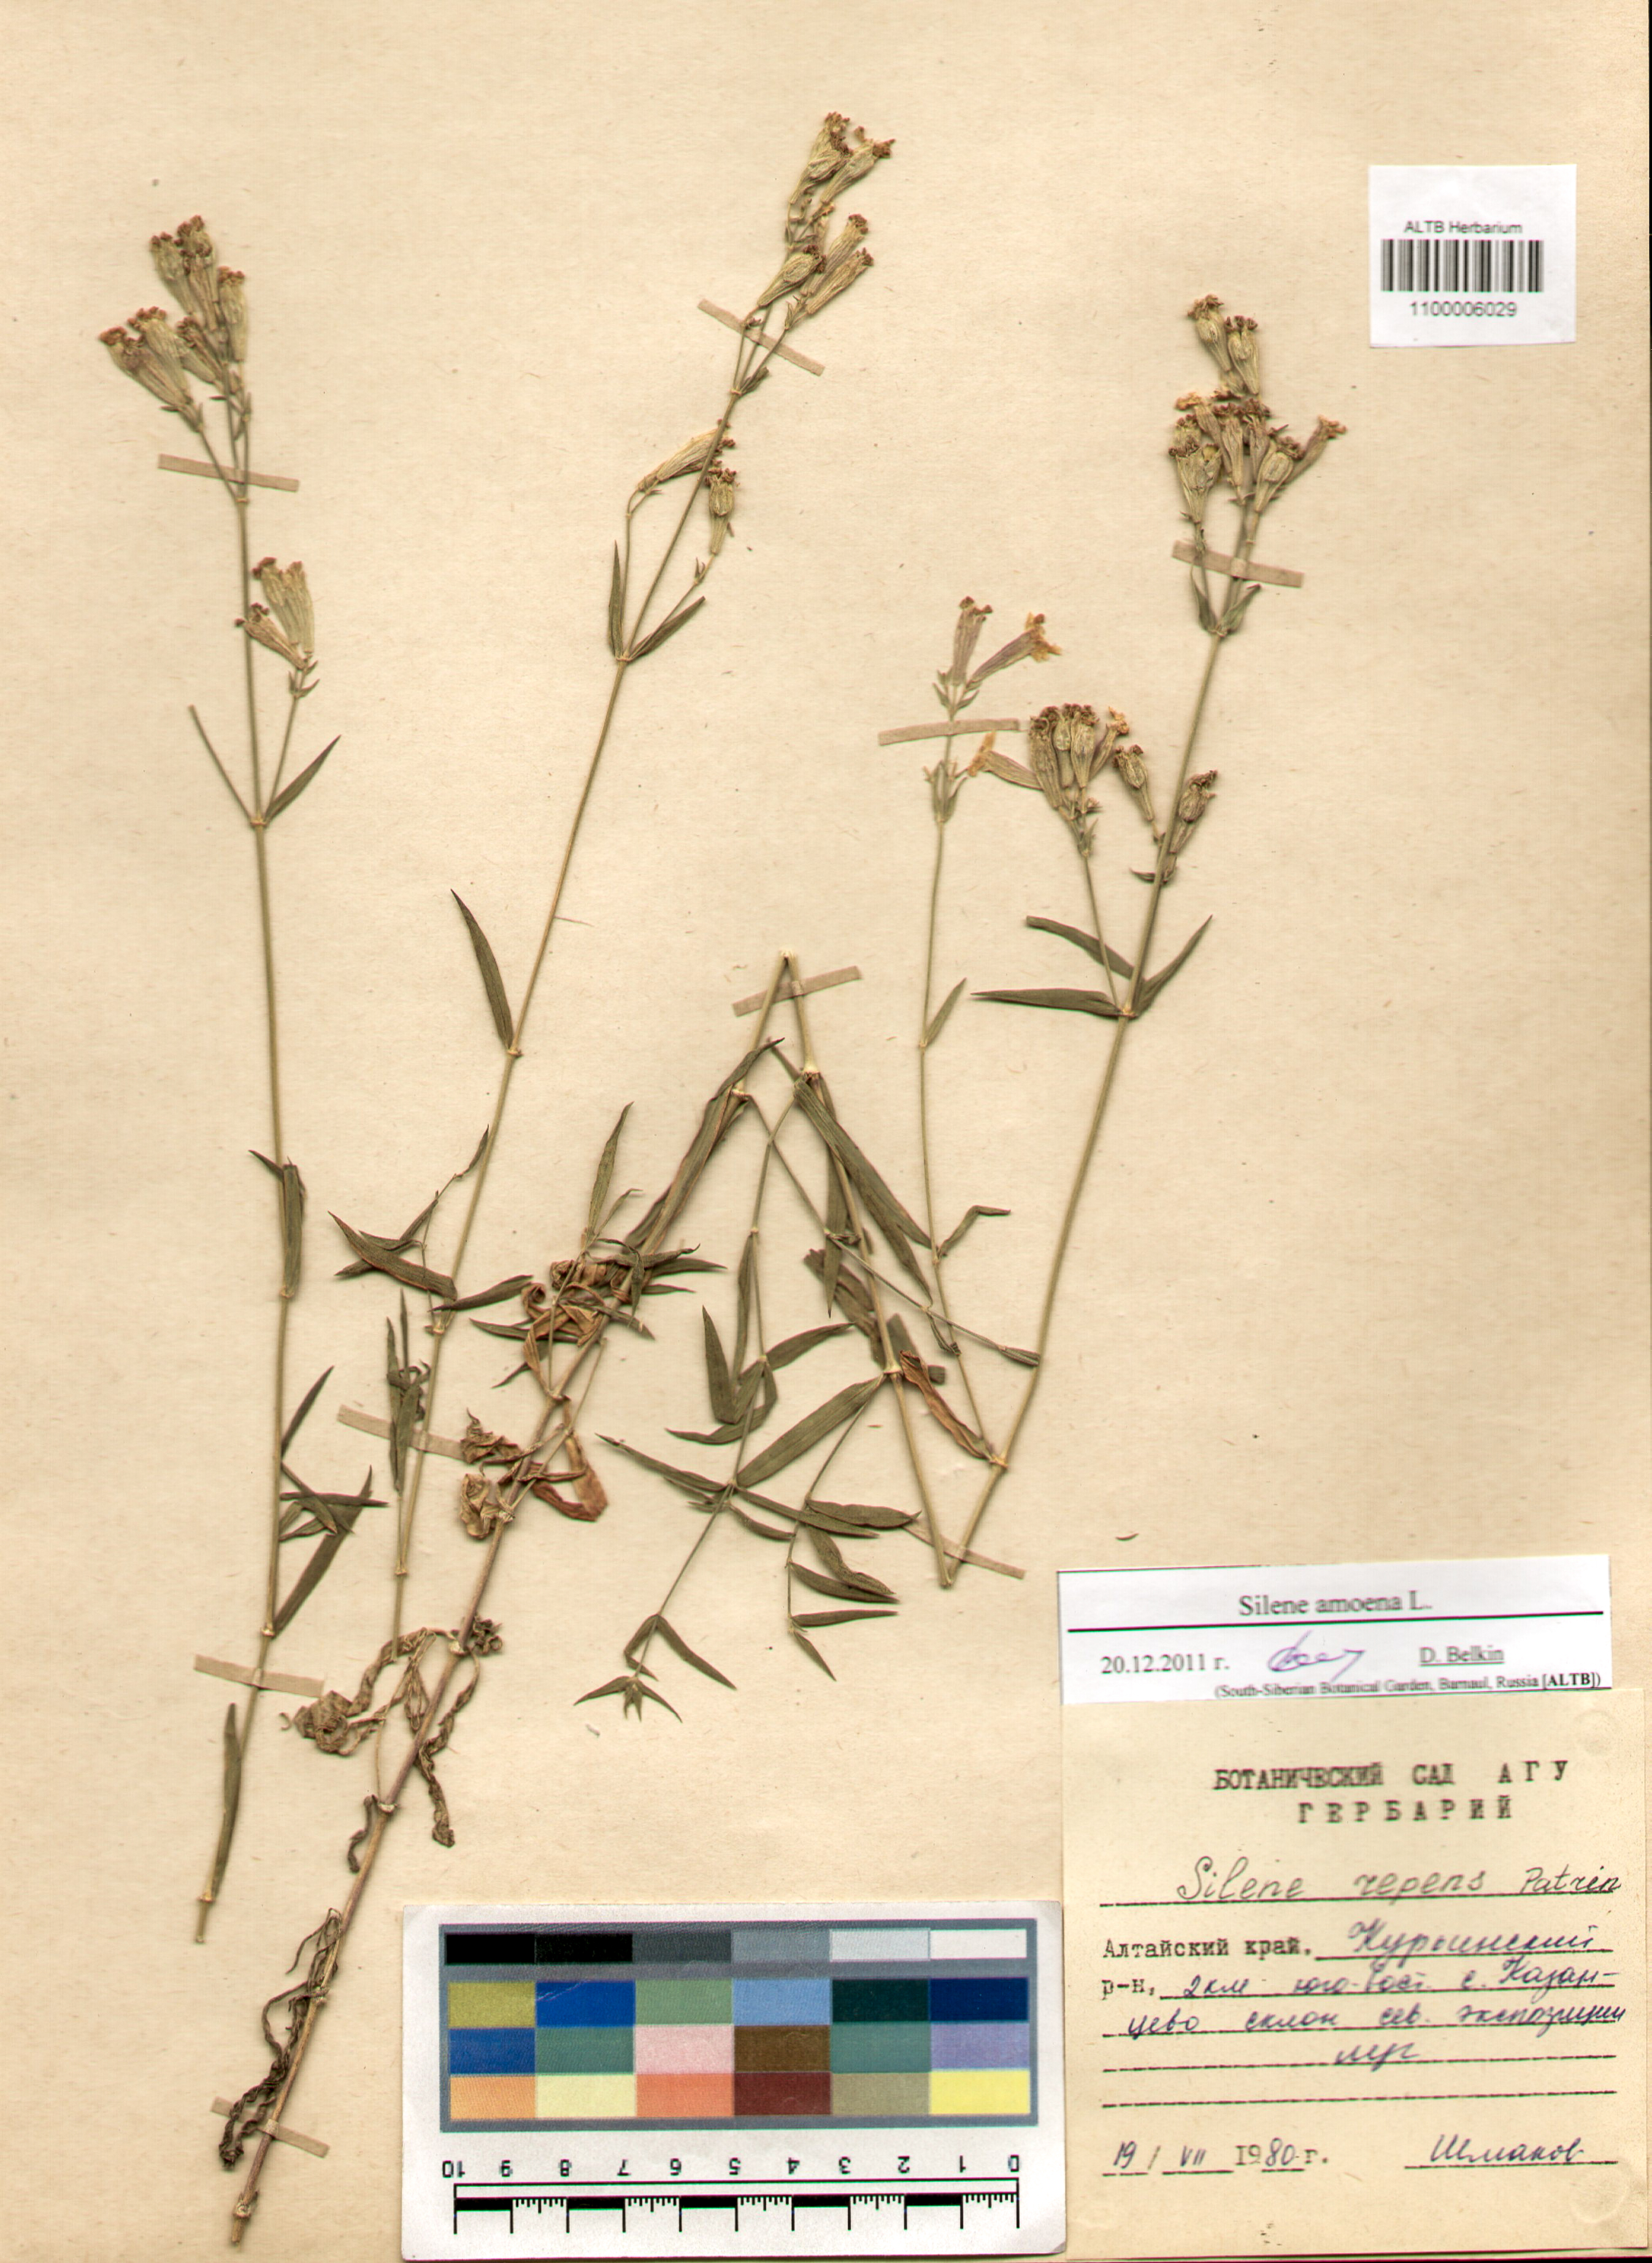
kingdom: Plantae
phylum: Tracheophyta
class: Magnoliopsida
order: Caryophyllales
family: Caryophyllaceae
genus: Silene
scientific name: Silene amoena
